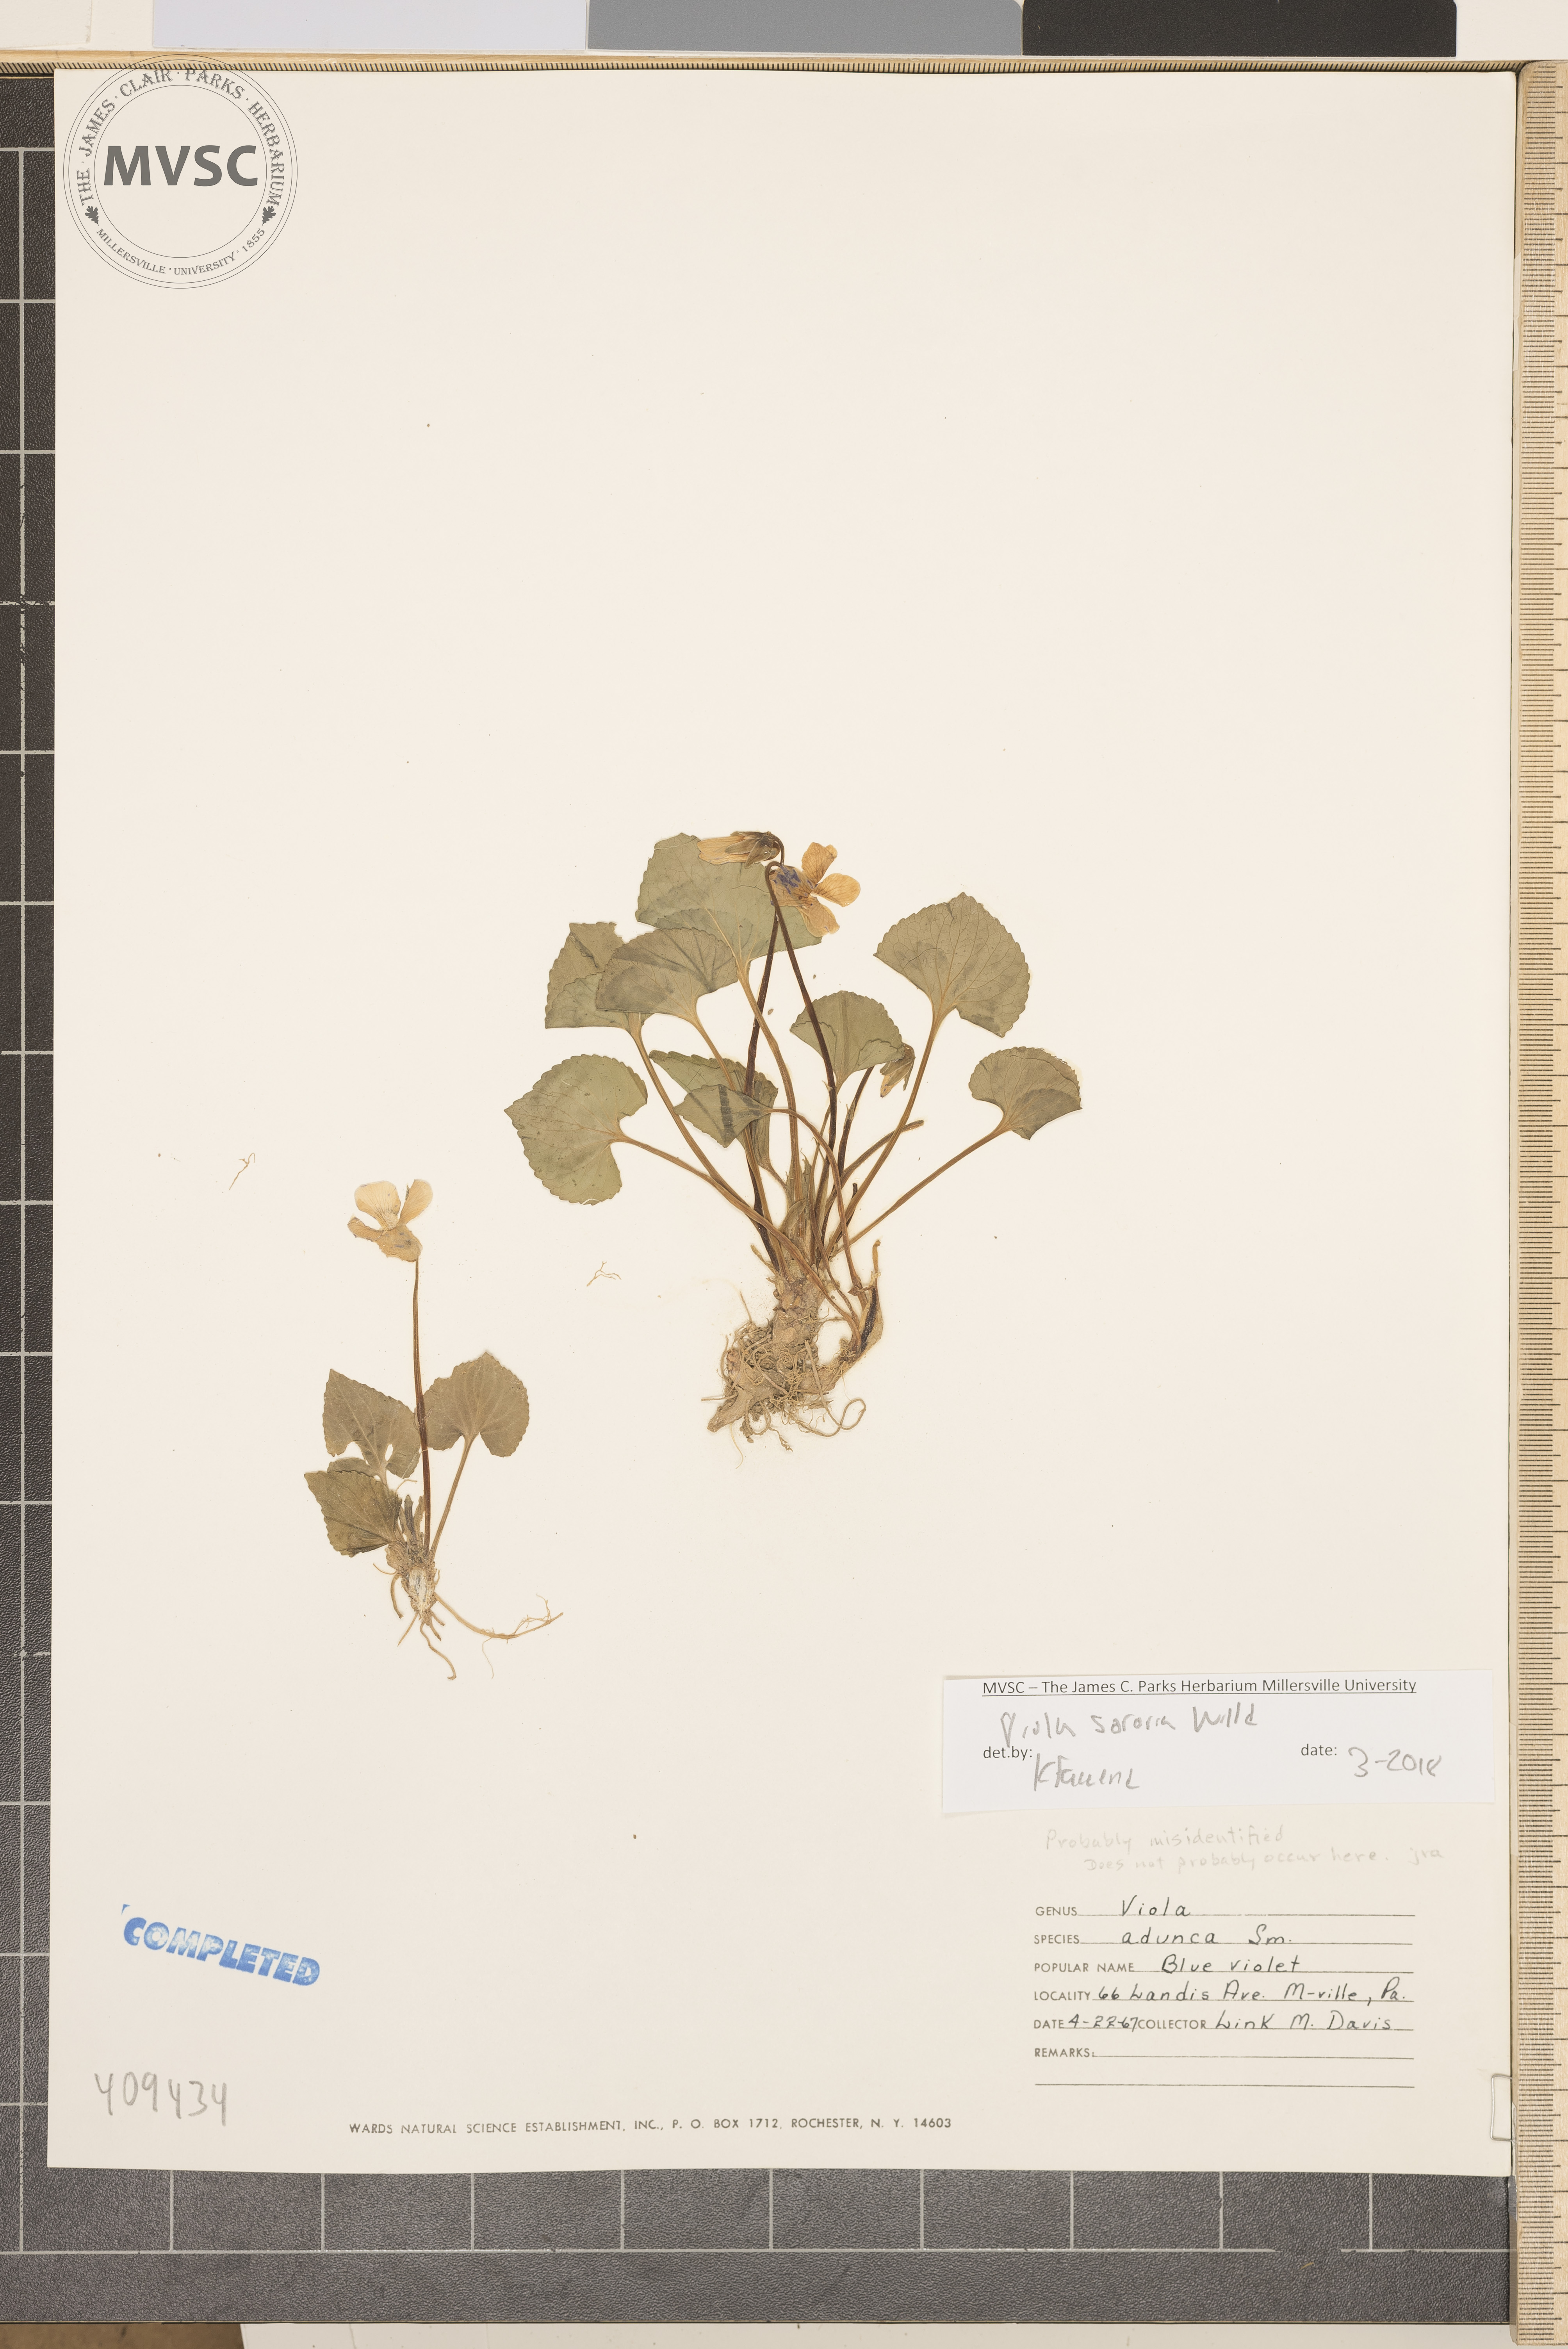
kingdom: Plantae
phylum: Tracheophyta
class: Magnoliopsida
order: Malpighiales
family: Violaceae
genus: Viola
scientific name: Viola sororia
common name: Dooryard violet
